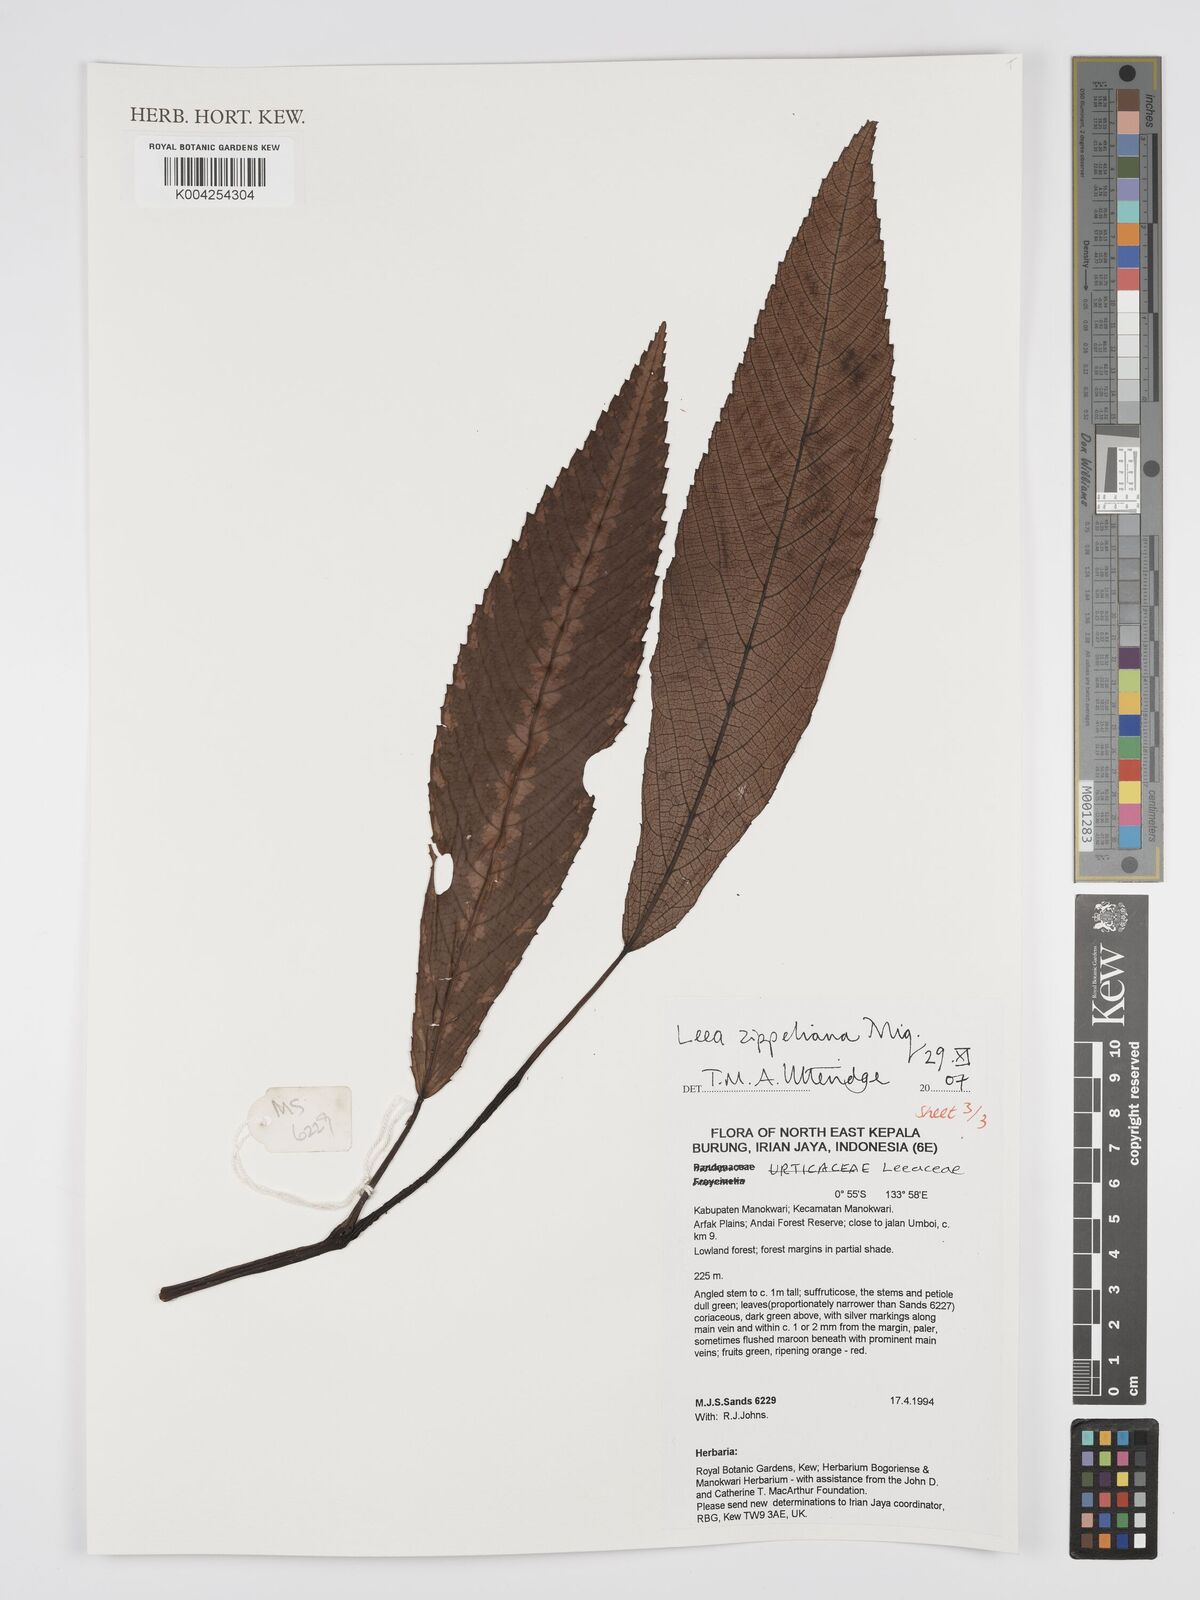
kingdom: Plantae
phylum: Tracheophyta
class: Magnoliopsida
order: Vitales
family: Vitaceae
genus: Leea
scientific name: Leea zippeliana
